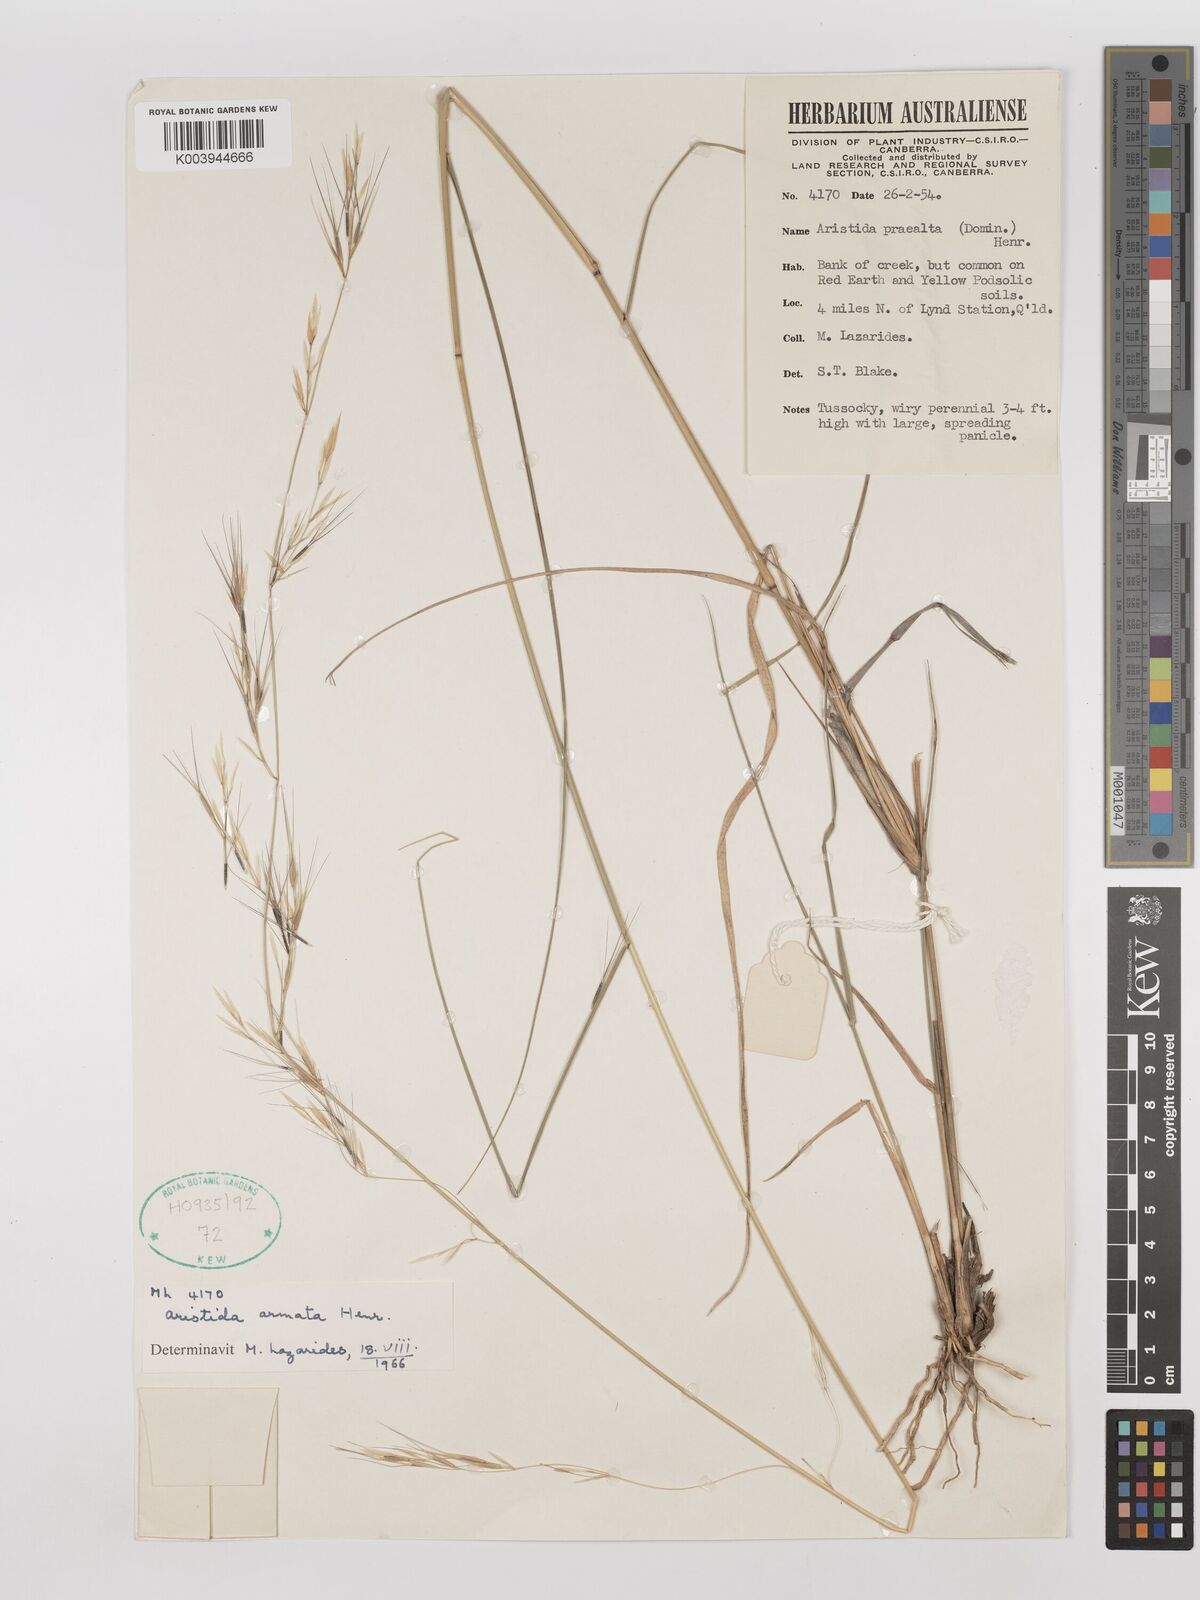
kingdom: Plantae
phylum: Tracheophyta
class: Liliopsida
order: Poales
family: Poaceae
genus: Aristida
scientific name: Aristida calycina
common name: Dark wire grass
